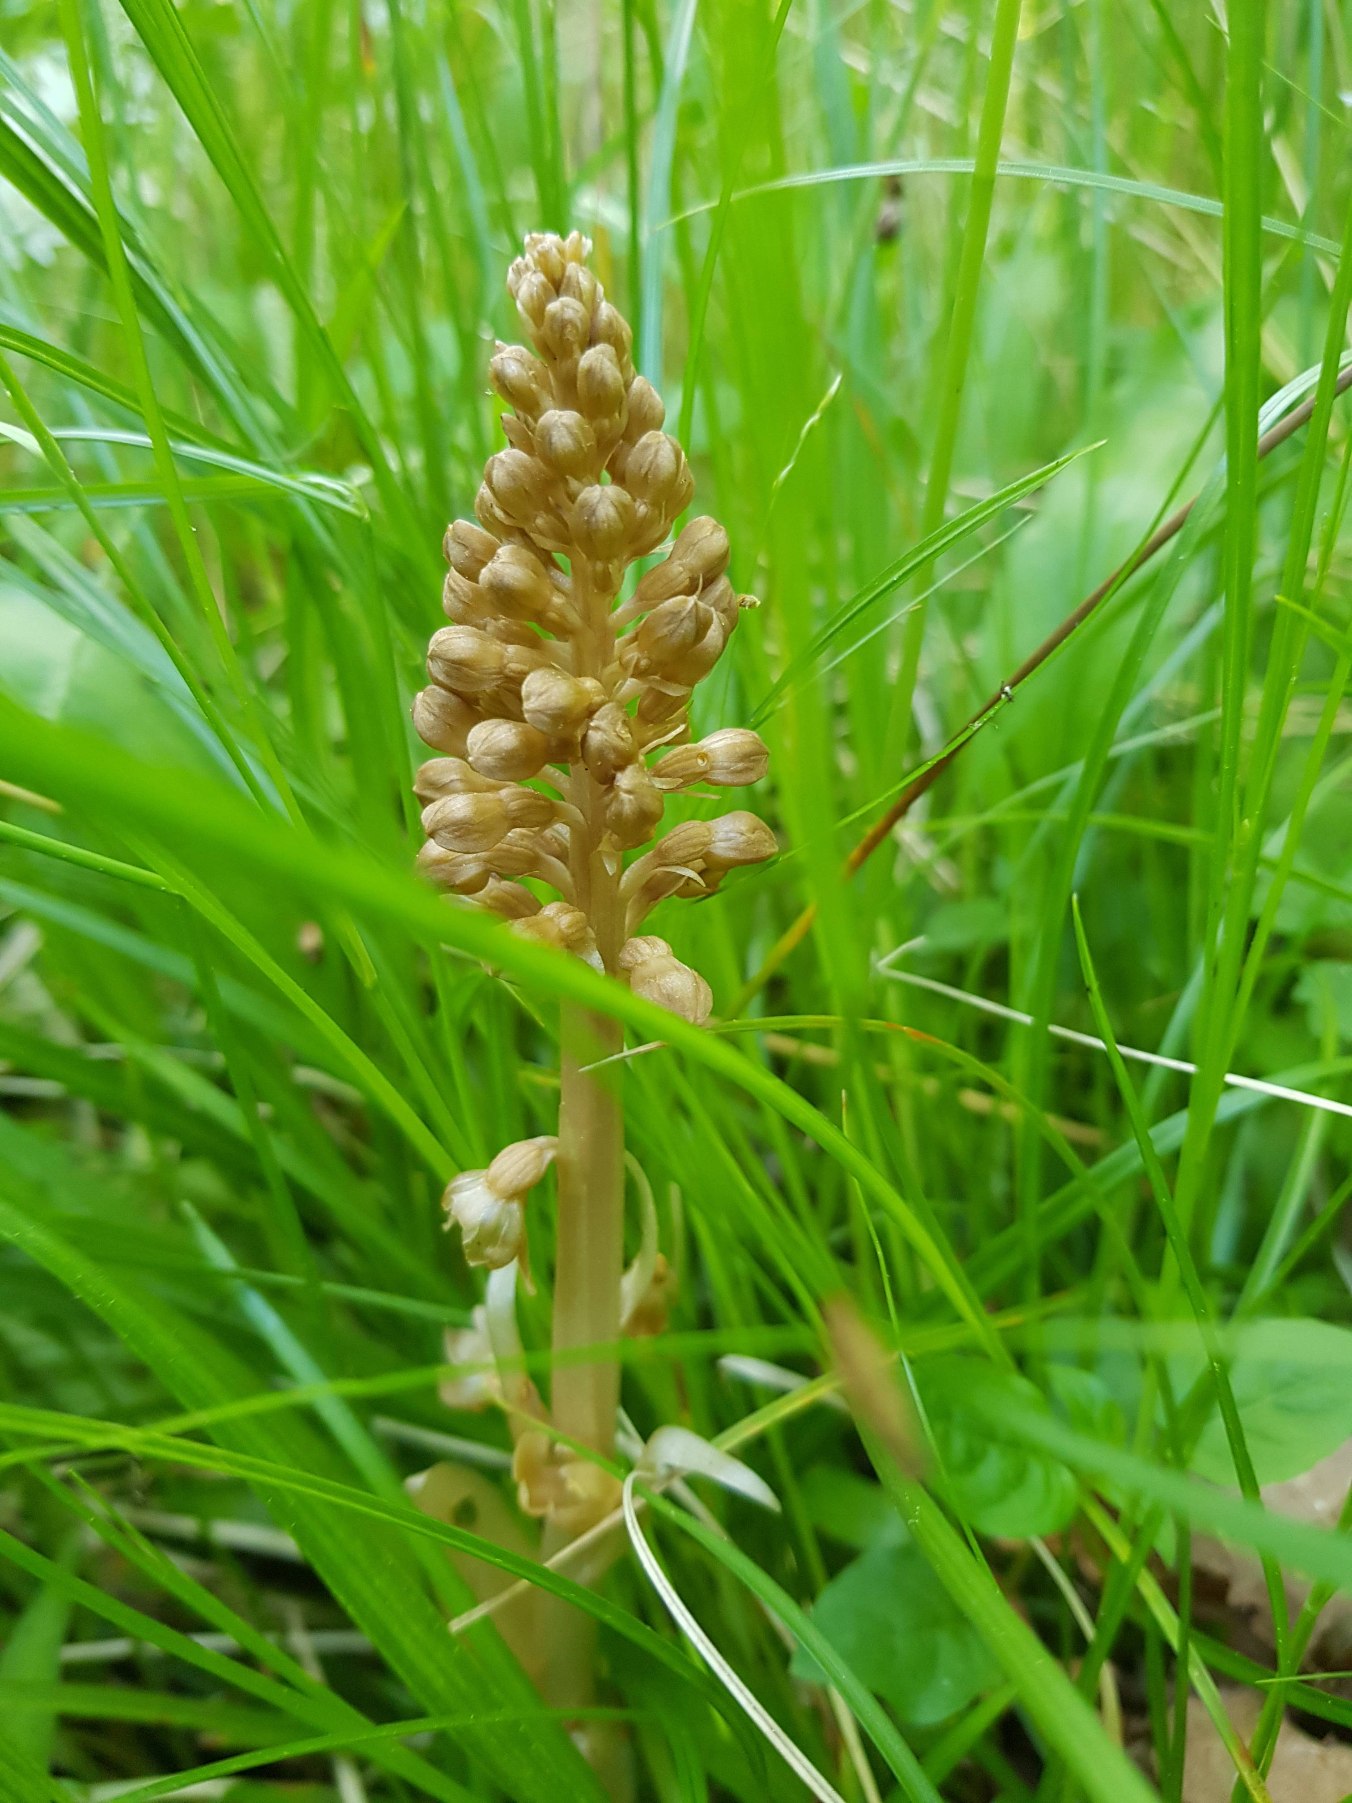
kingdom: Plantae
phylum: Tracheophyta
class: Liliopsida
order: Asparagales
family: Orchidaceae
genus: Neottia
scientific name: Neottia nidus-avis
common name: Rederod
